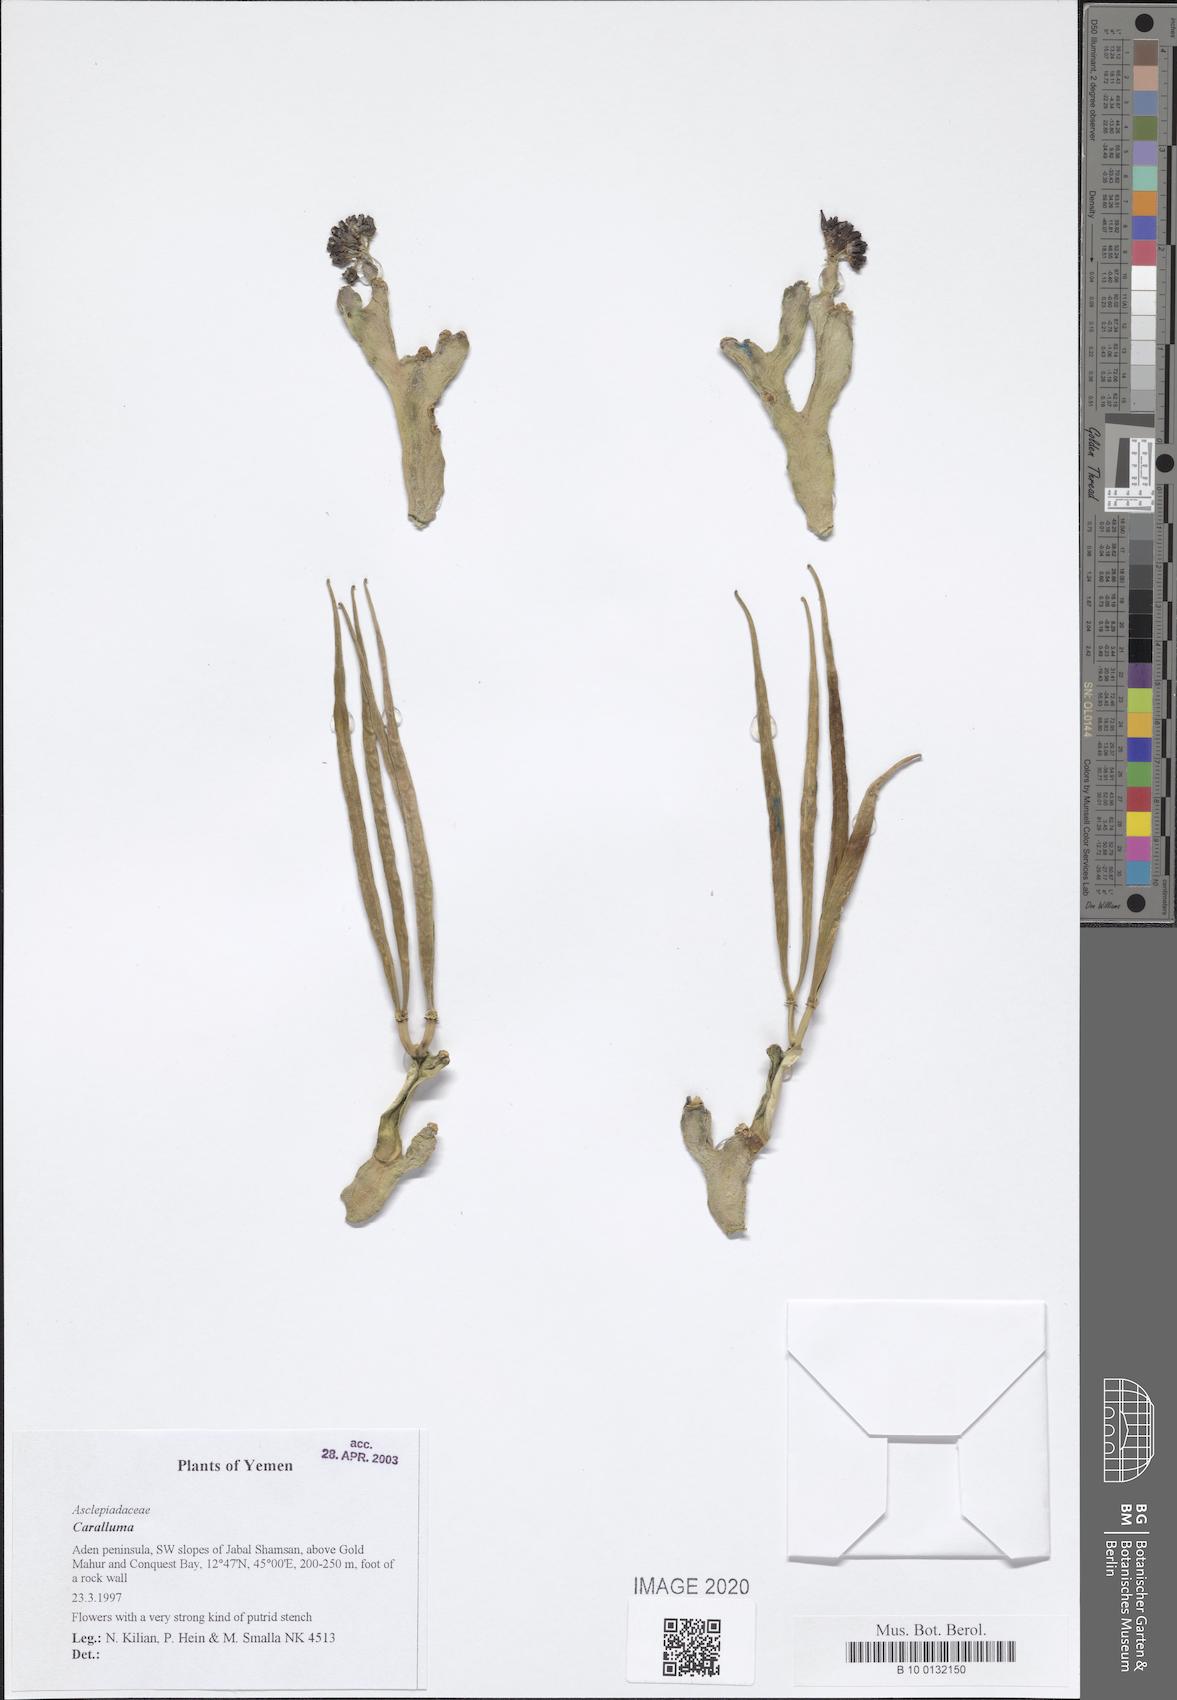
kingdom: Plantae
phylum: Tracheophyta
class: Magnoliopsida
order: Gentianales
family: Apocynaceae
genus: Ceropegia
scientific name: Ceropegia adenensis
